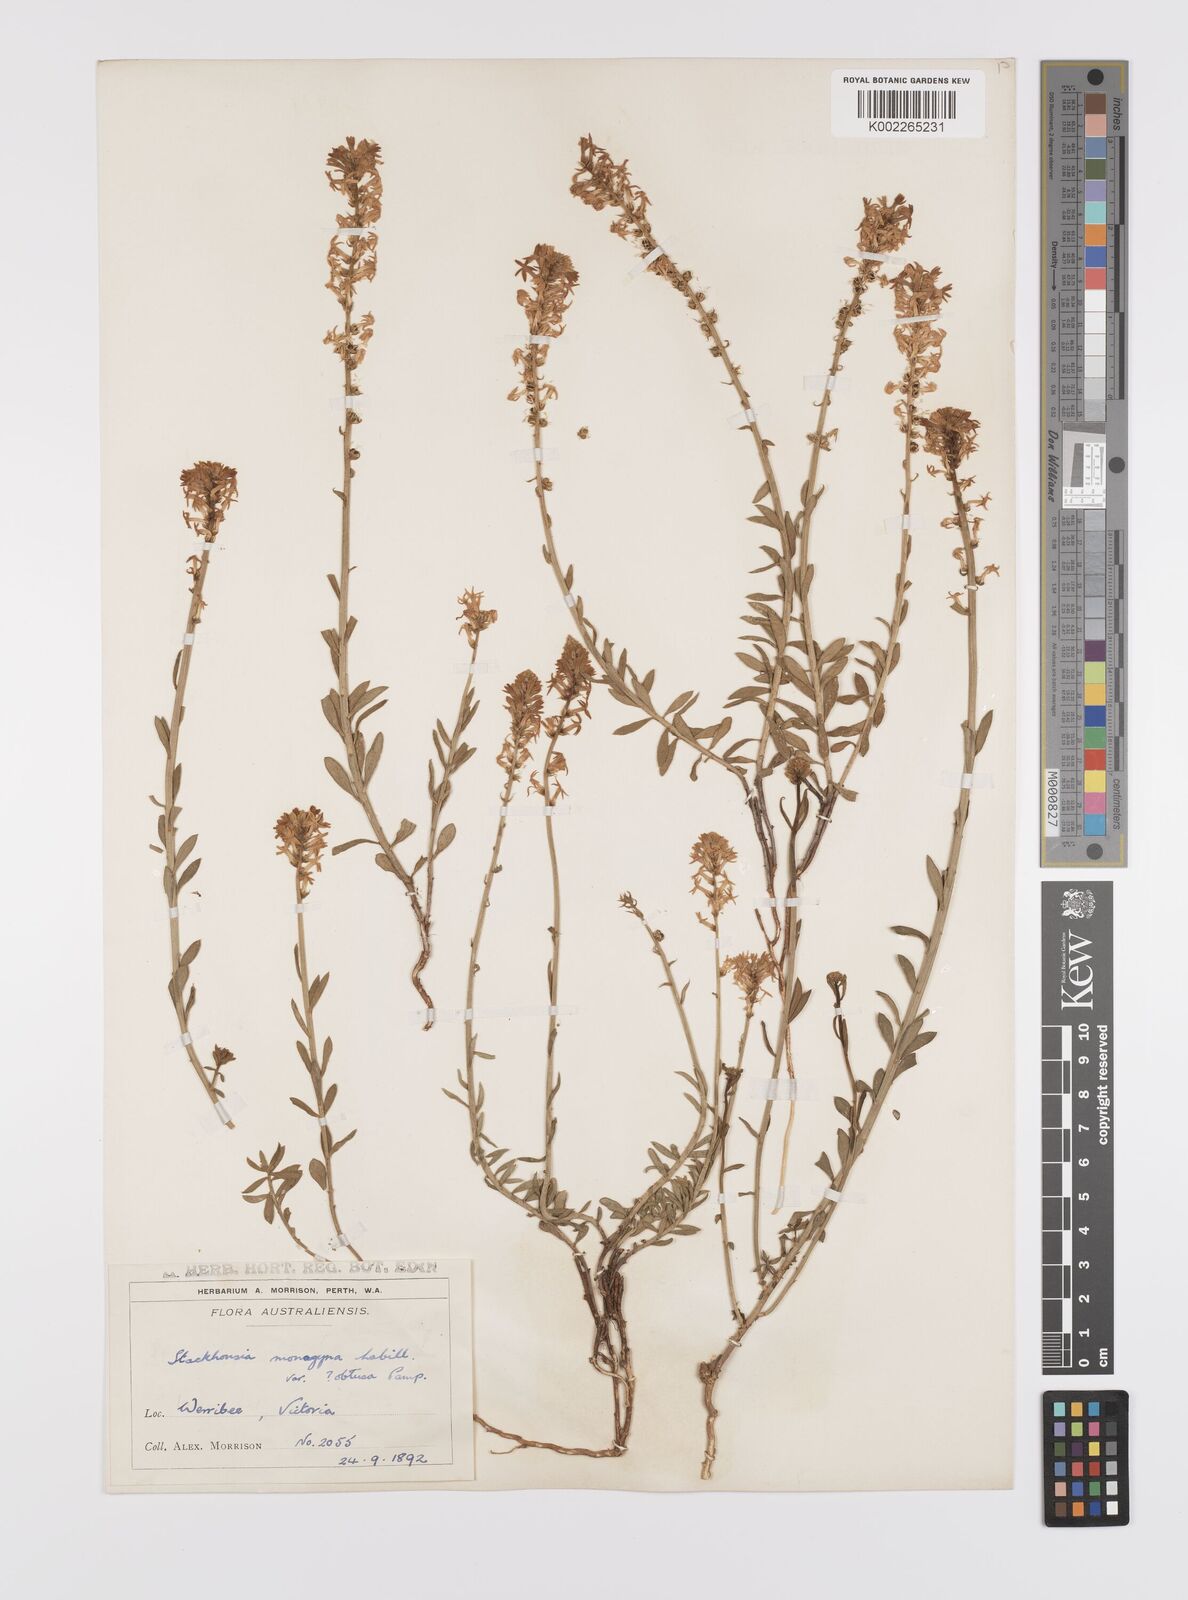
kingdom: Plantae
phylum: Tracheophyta
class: Magnoliopsida
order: Celastrales
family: Celastraceae
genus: Stackhousia
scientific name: Stackhousia monogyna
